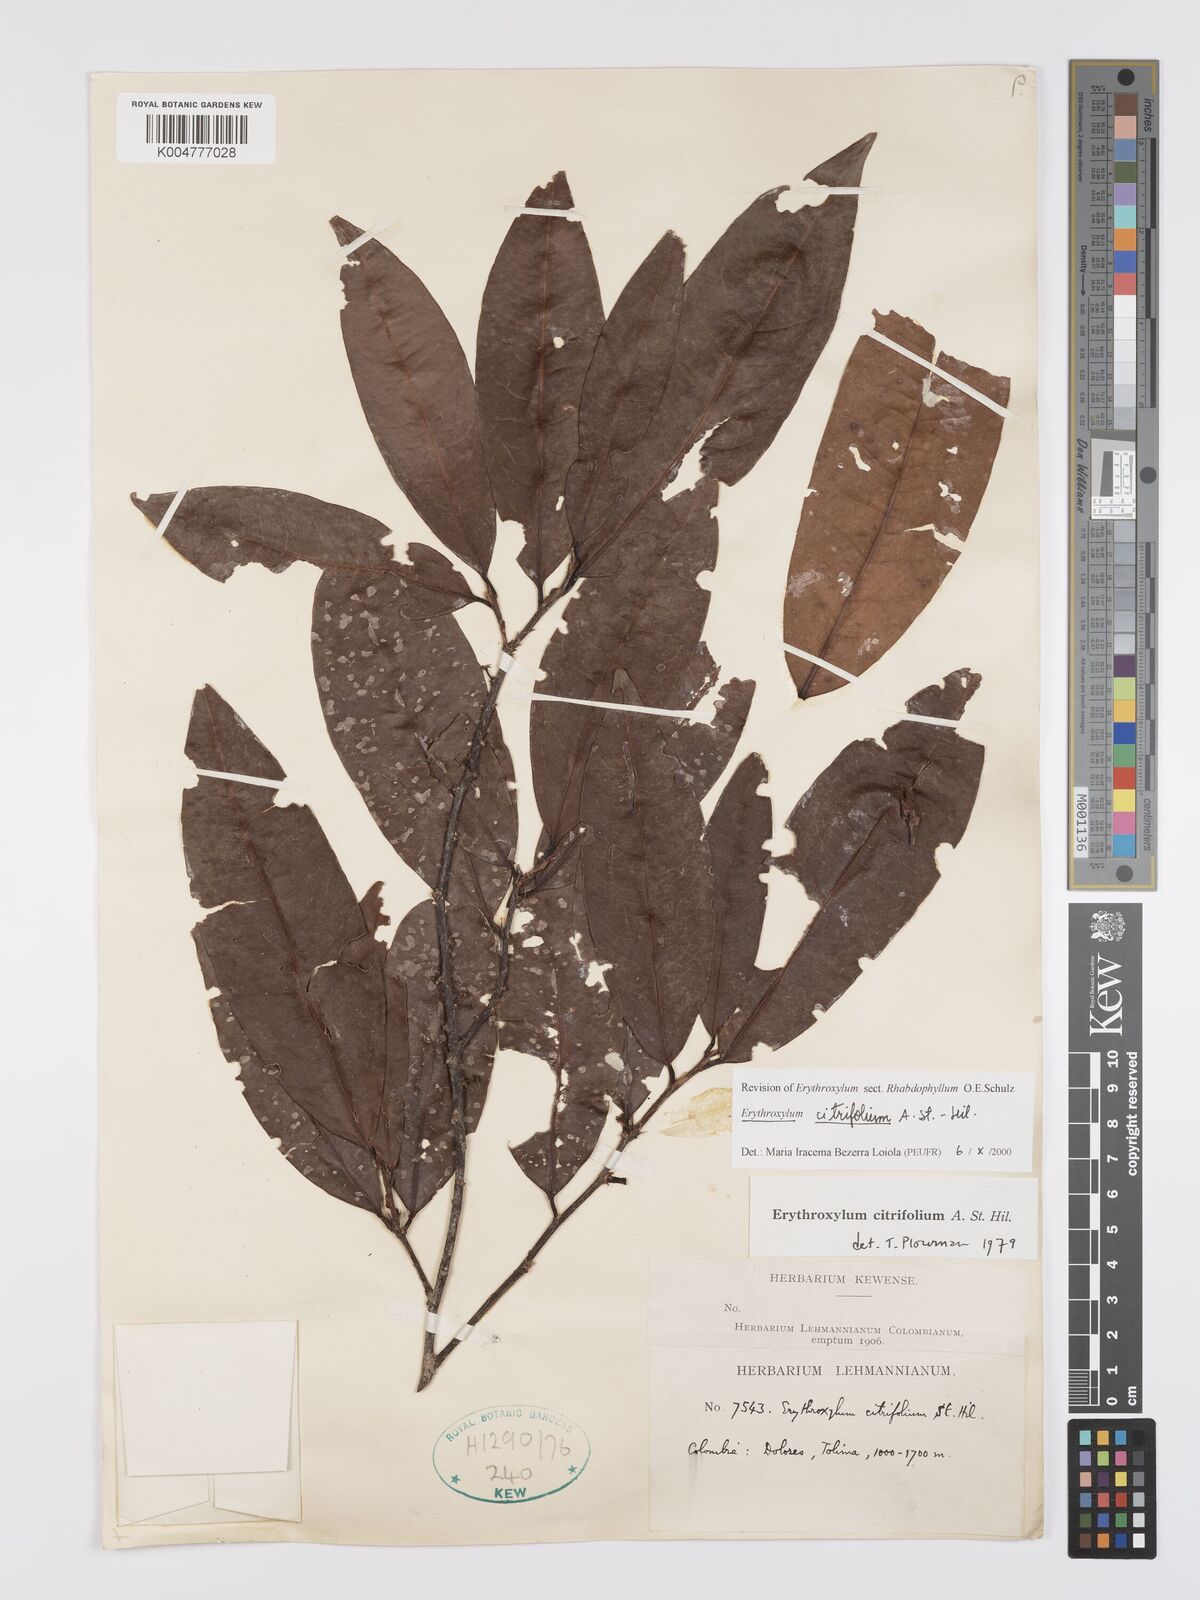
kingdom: Plantae
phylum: Tracheophyta
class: Magnoliopsida
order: Malpighiales
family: Erythroxylaceae
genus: Erythroxylum
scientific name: Erythroxylum citrifolium
